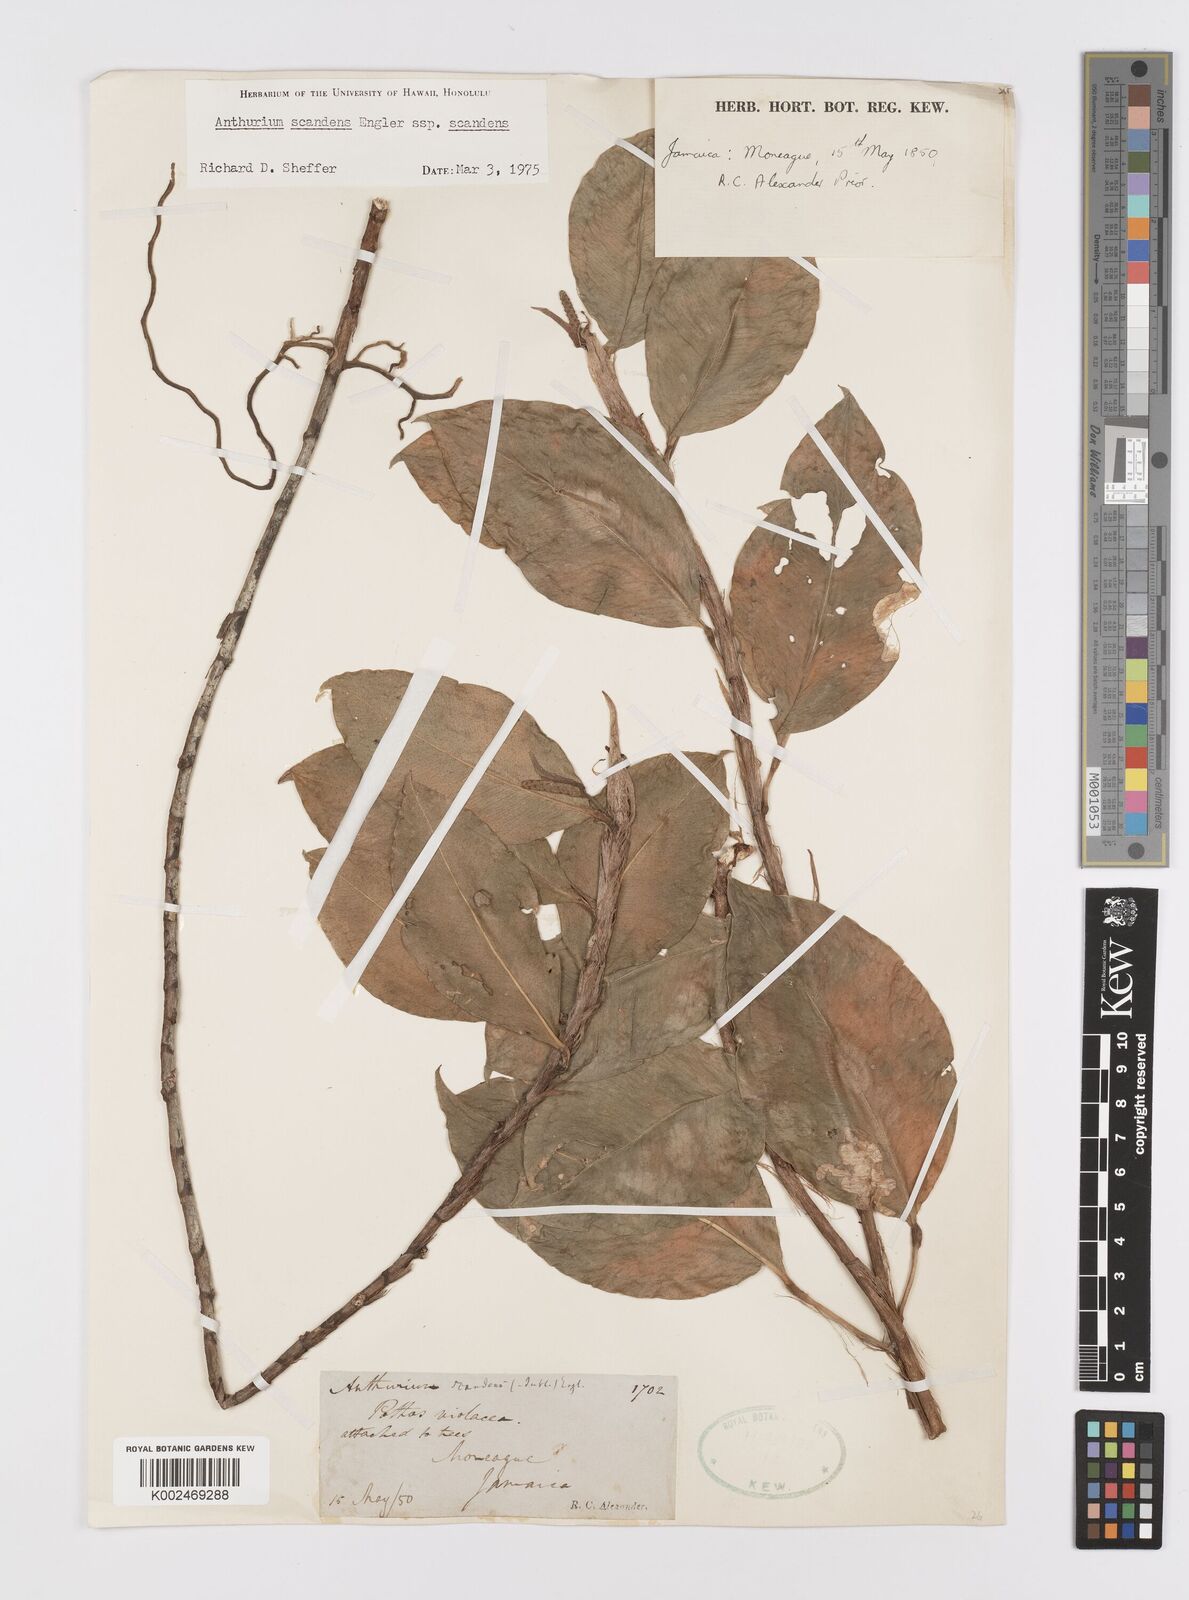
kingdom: Plantae
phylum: Tracheophyta
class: Liliopsida
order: Alismatales
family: Araceae
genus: Anthurium
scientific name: Anthurium scandens
